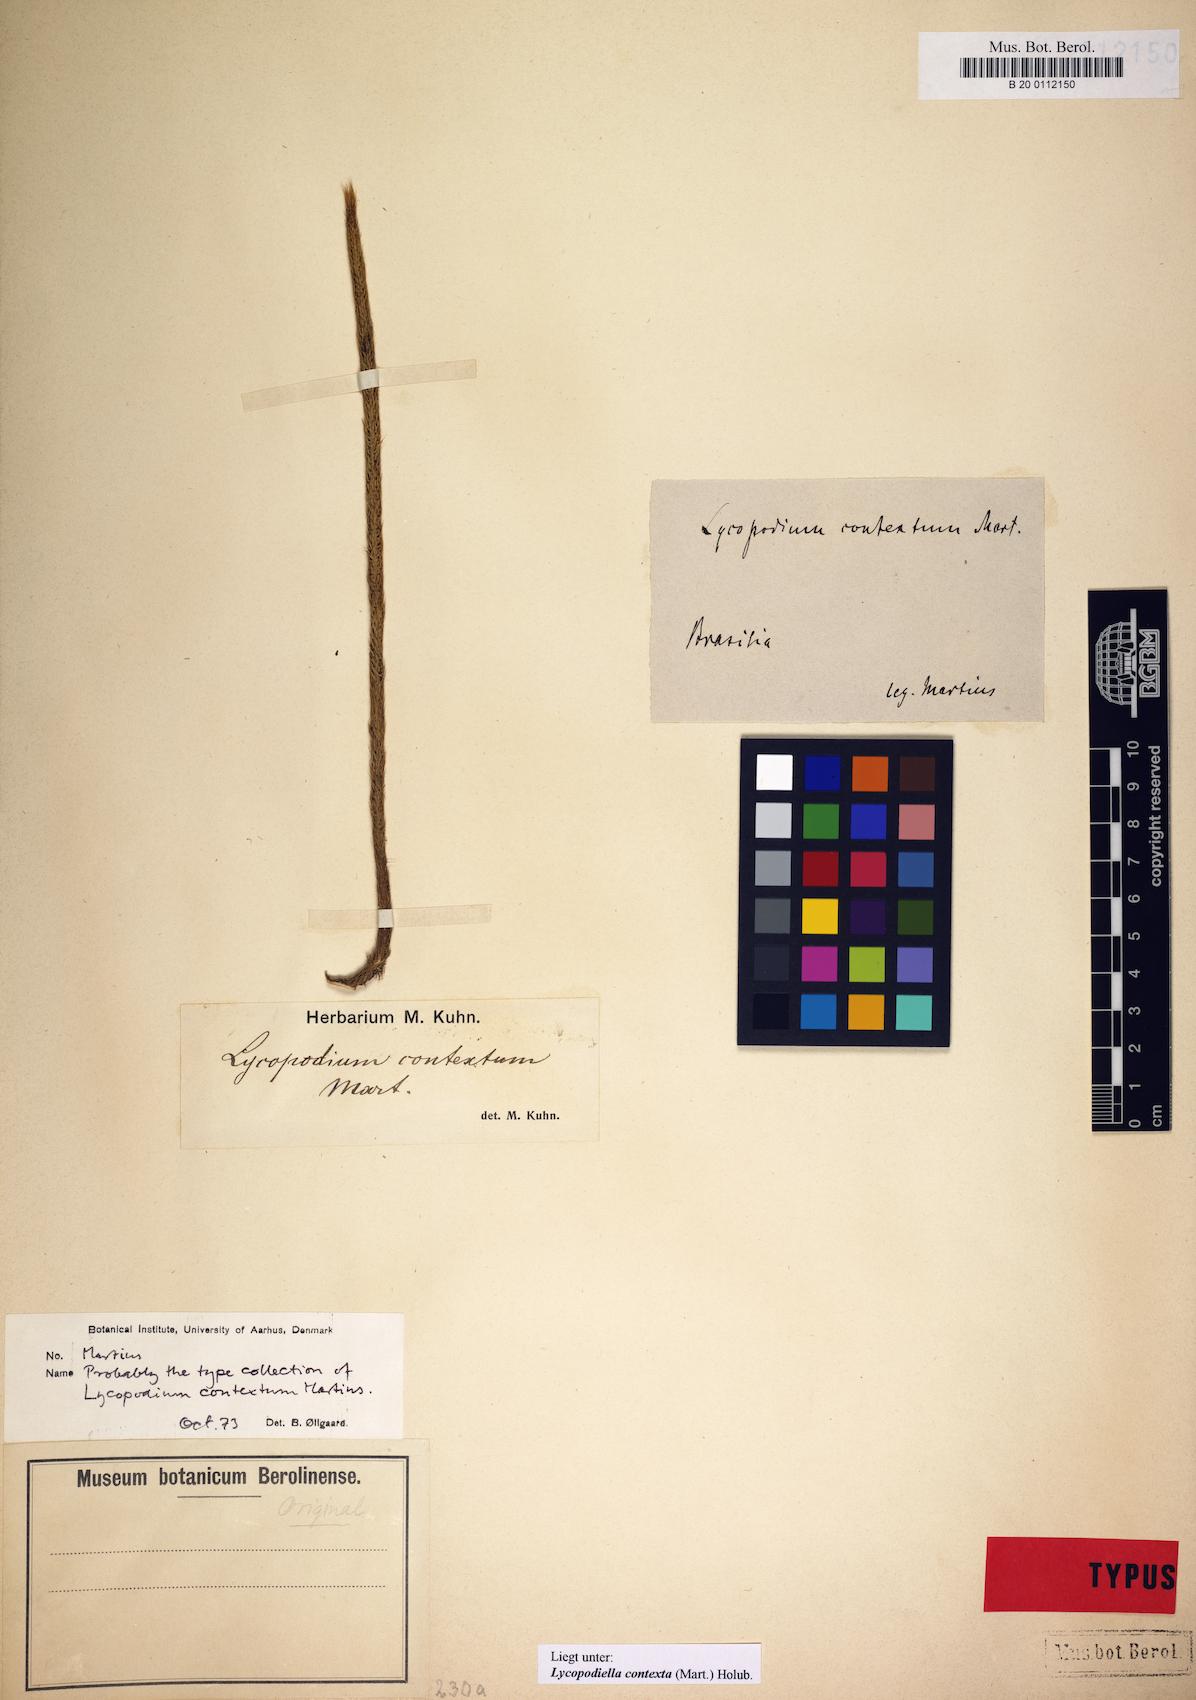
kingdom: Plantae
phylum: Tracheophyta
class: Lycopodiopsida
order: Lycopodiales
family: Lycopodiaceae
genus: Pseudolycopodiella
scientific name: Pseudolycopodiella contexta
